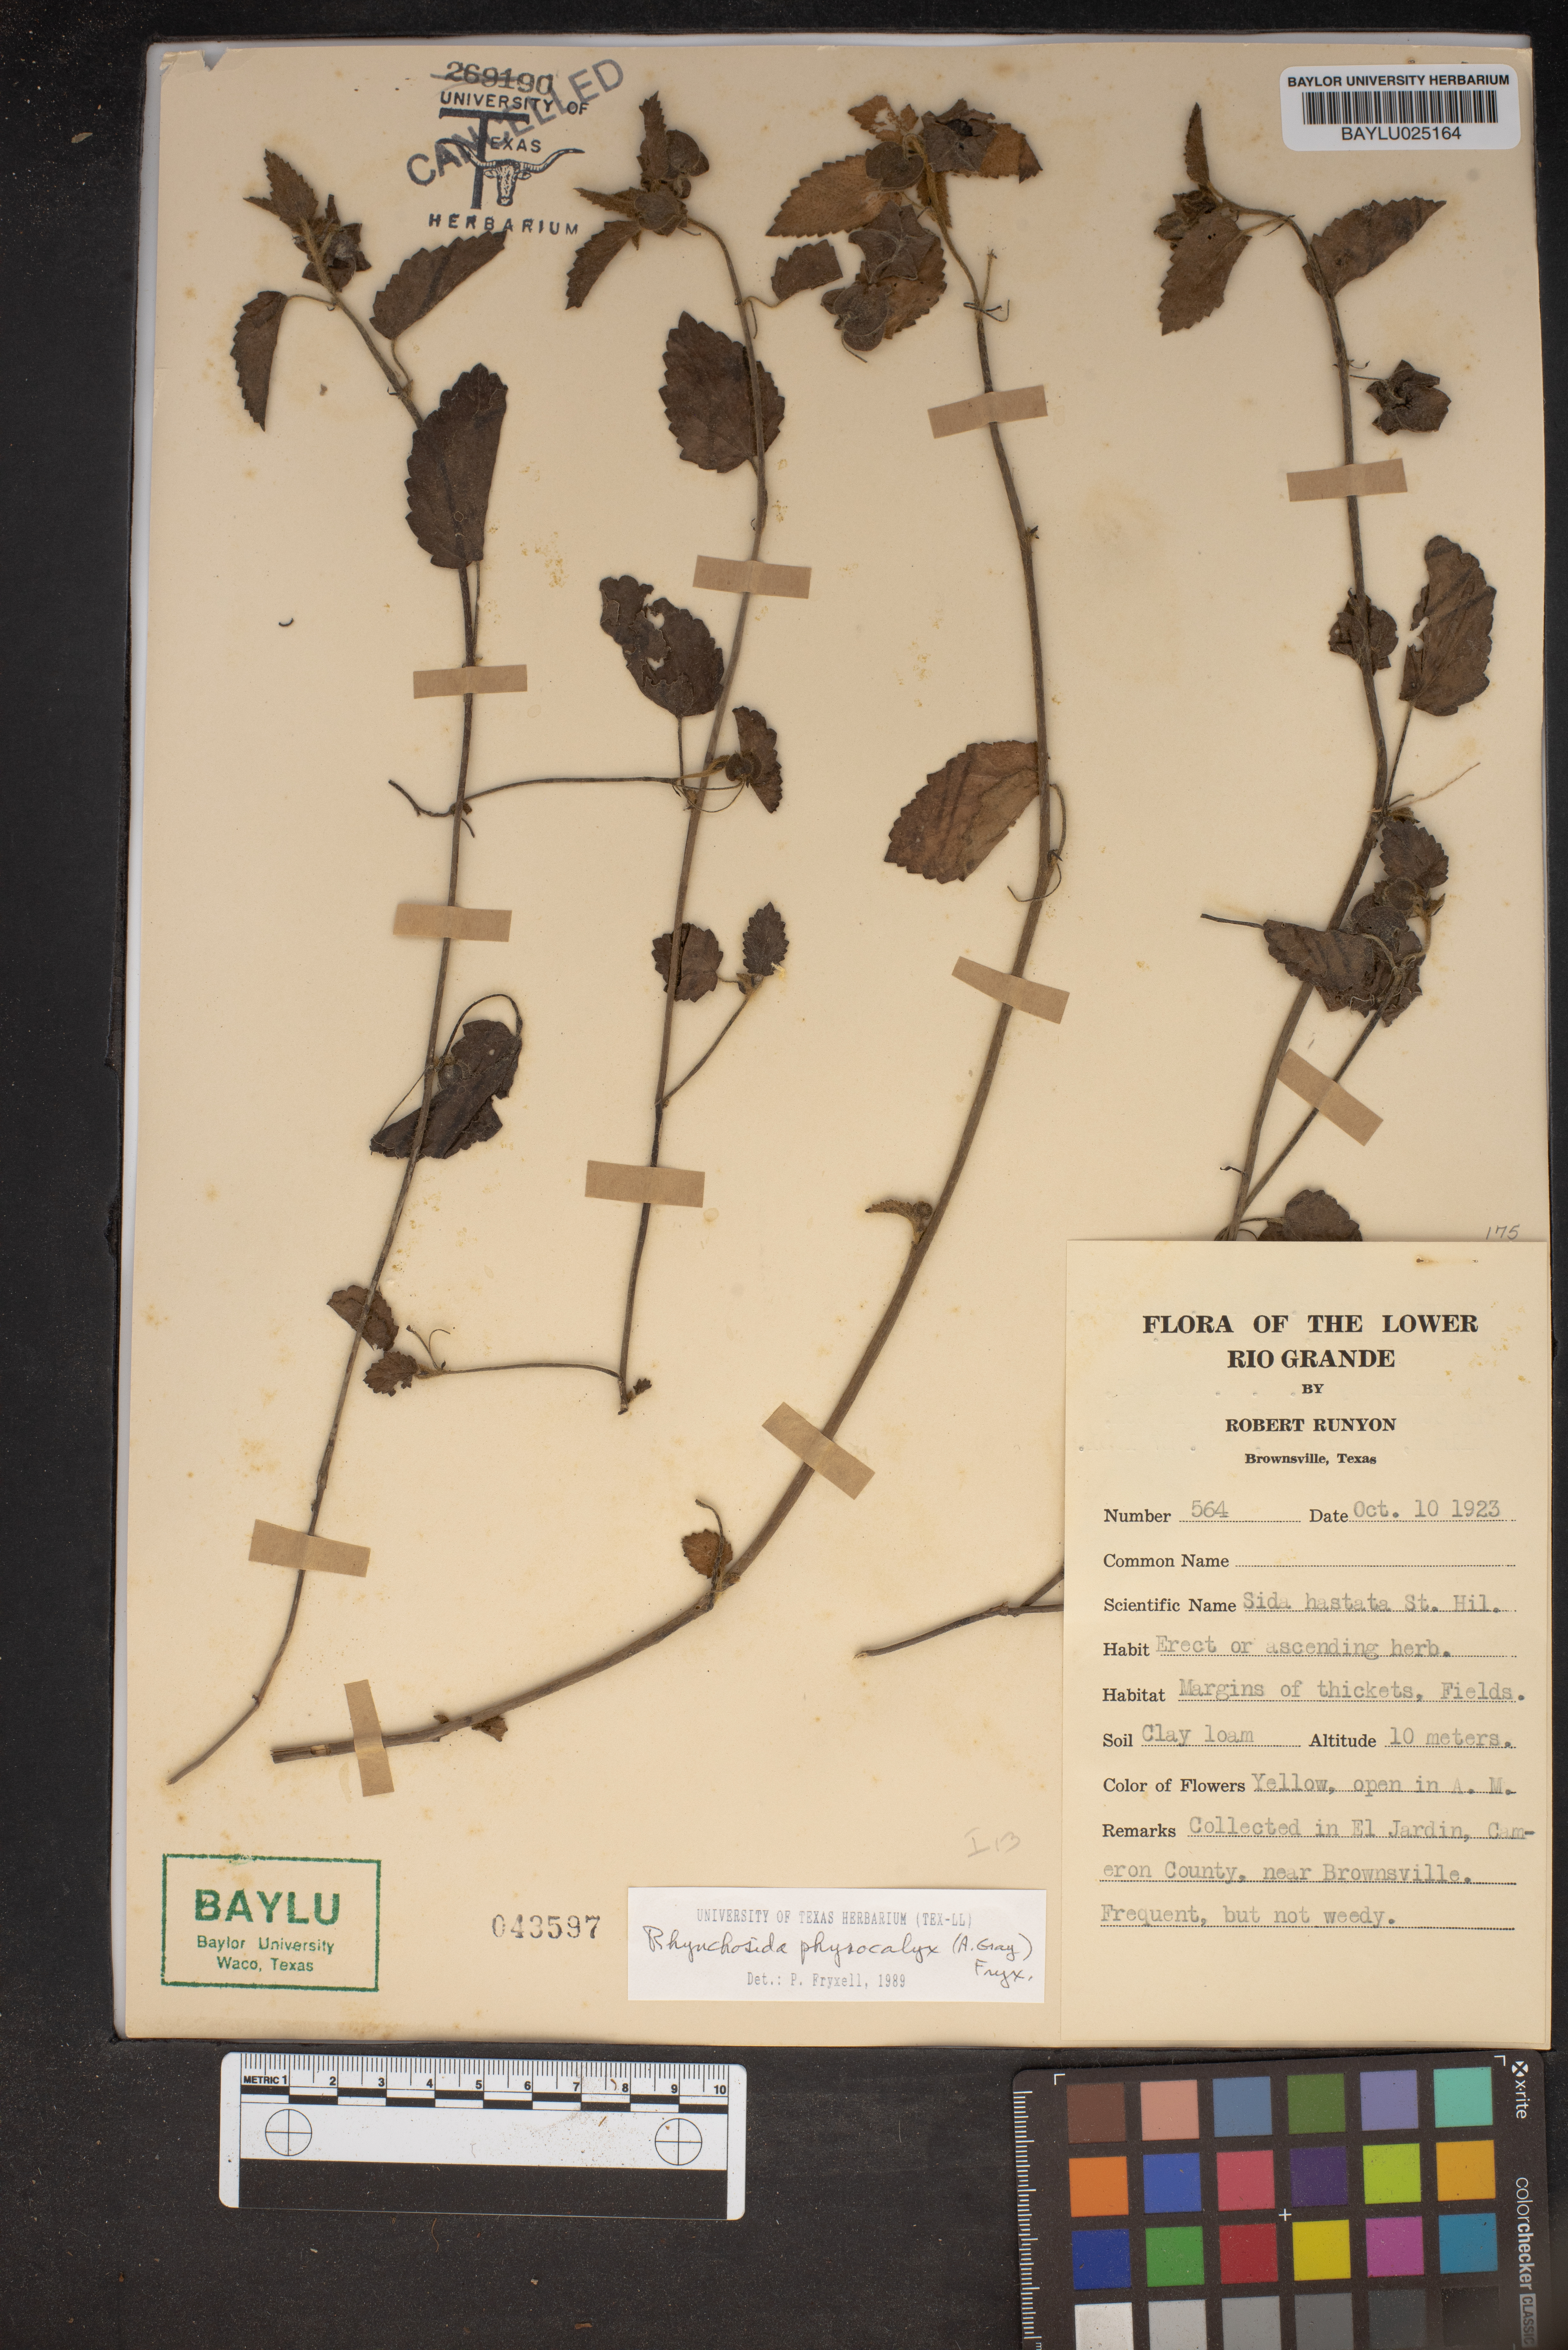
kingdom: Plantae
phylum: Tracheophyta
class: Magnoliopsida
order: Malvales
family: Malvaceae
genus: Rhynchosida
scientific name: Rhynchosida physocalyx
